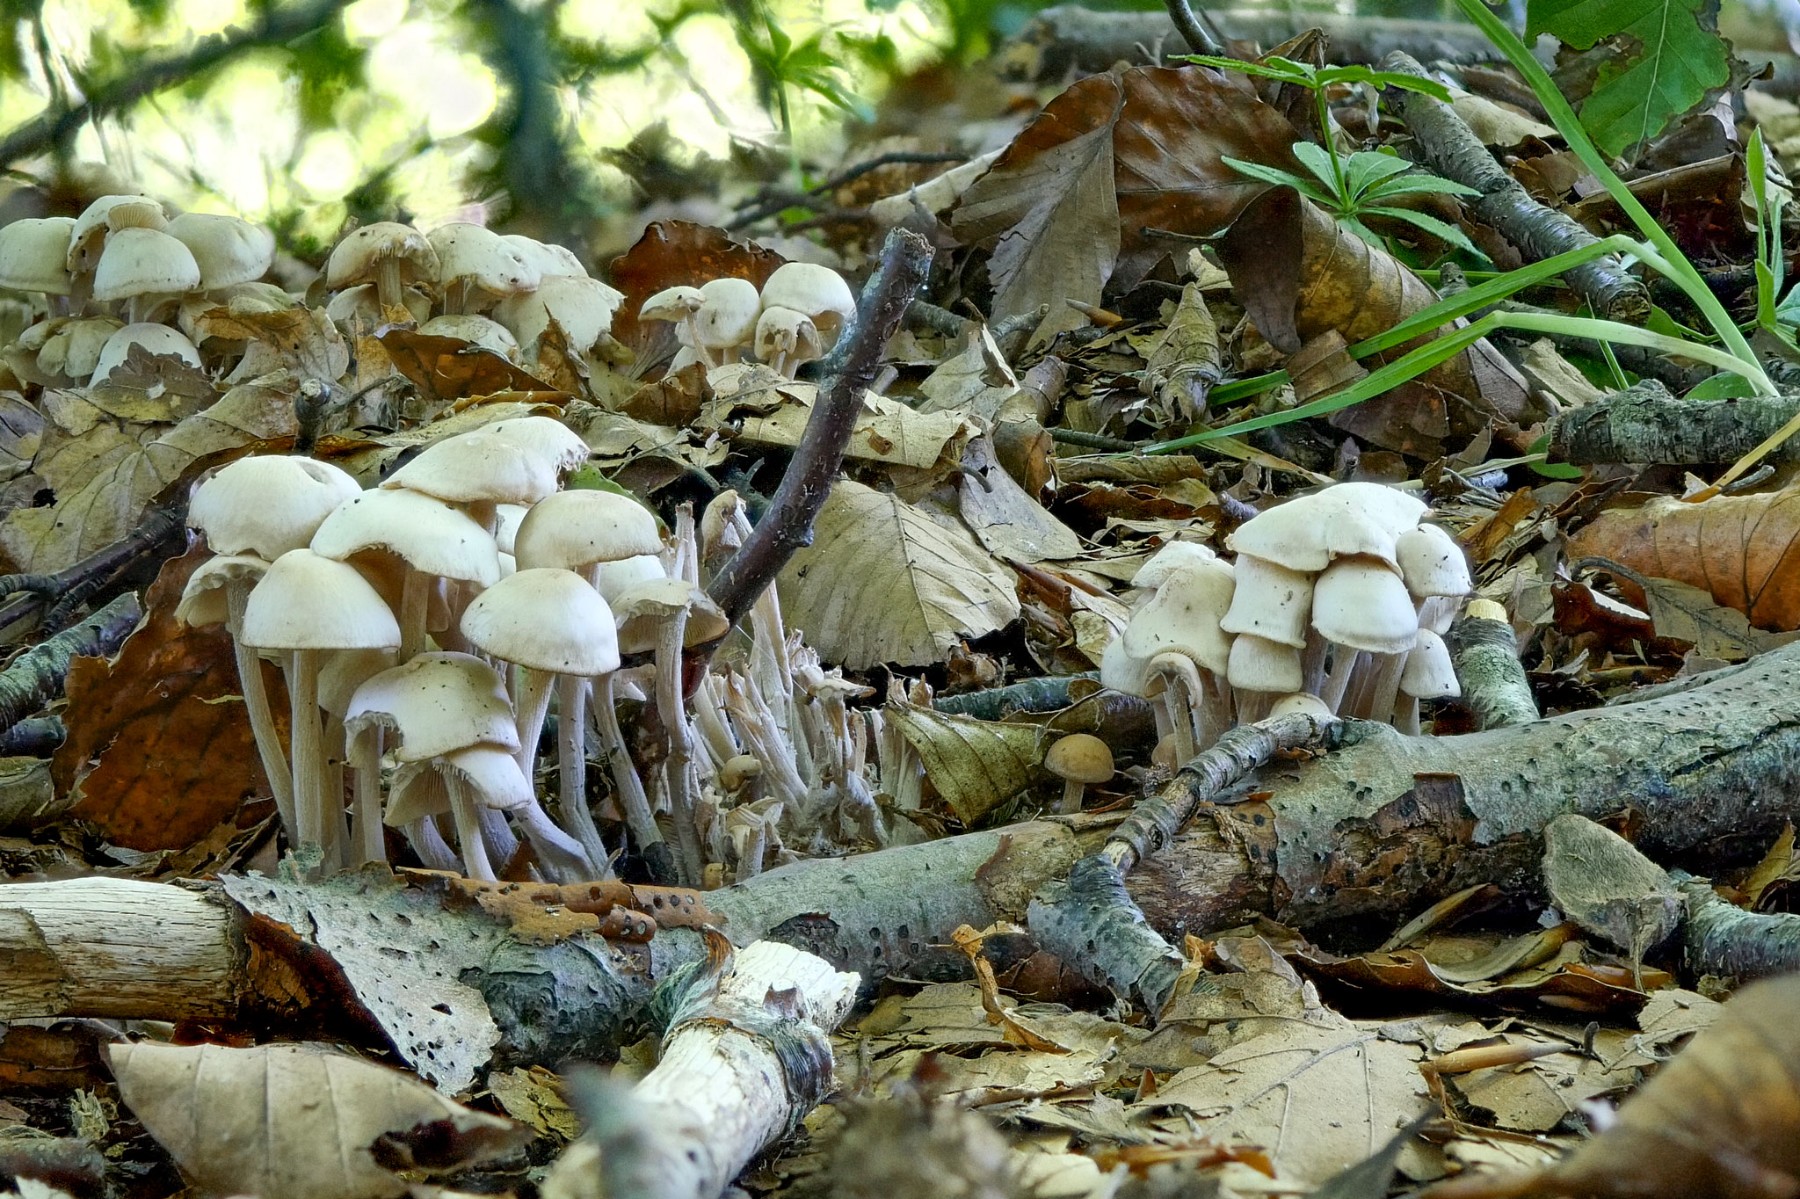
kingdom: Fungi
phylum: Basidiomycota
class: Agaricomycetes
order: Agaricales
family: Omphalotaceae
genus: Collybiopsis
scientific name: Collybiopsis confluens
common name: knippe-fladhat
